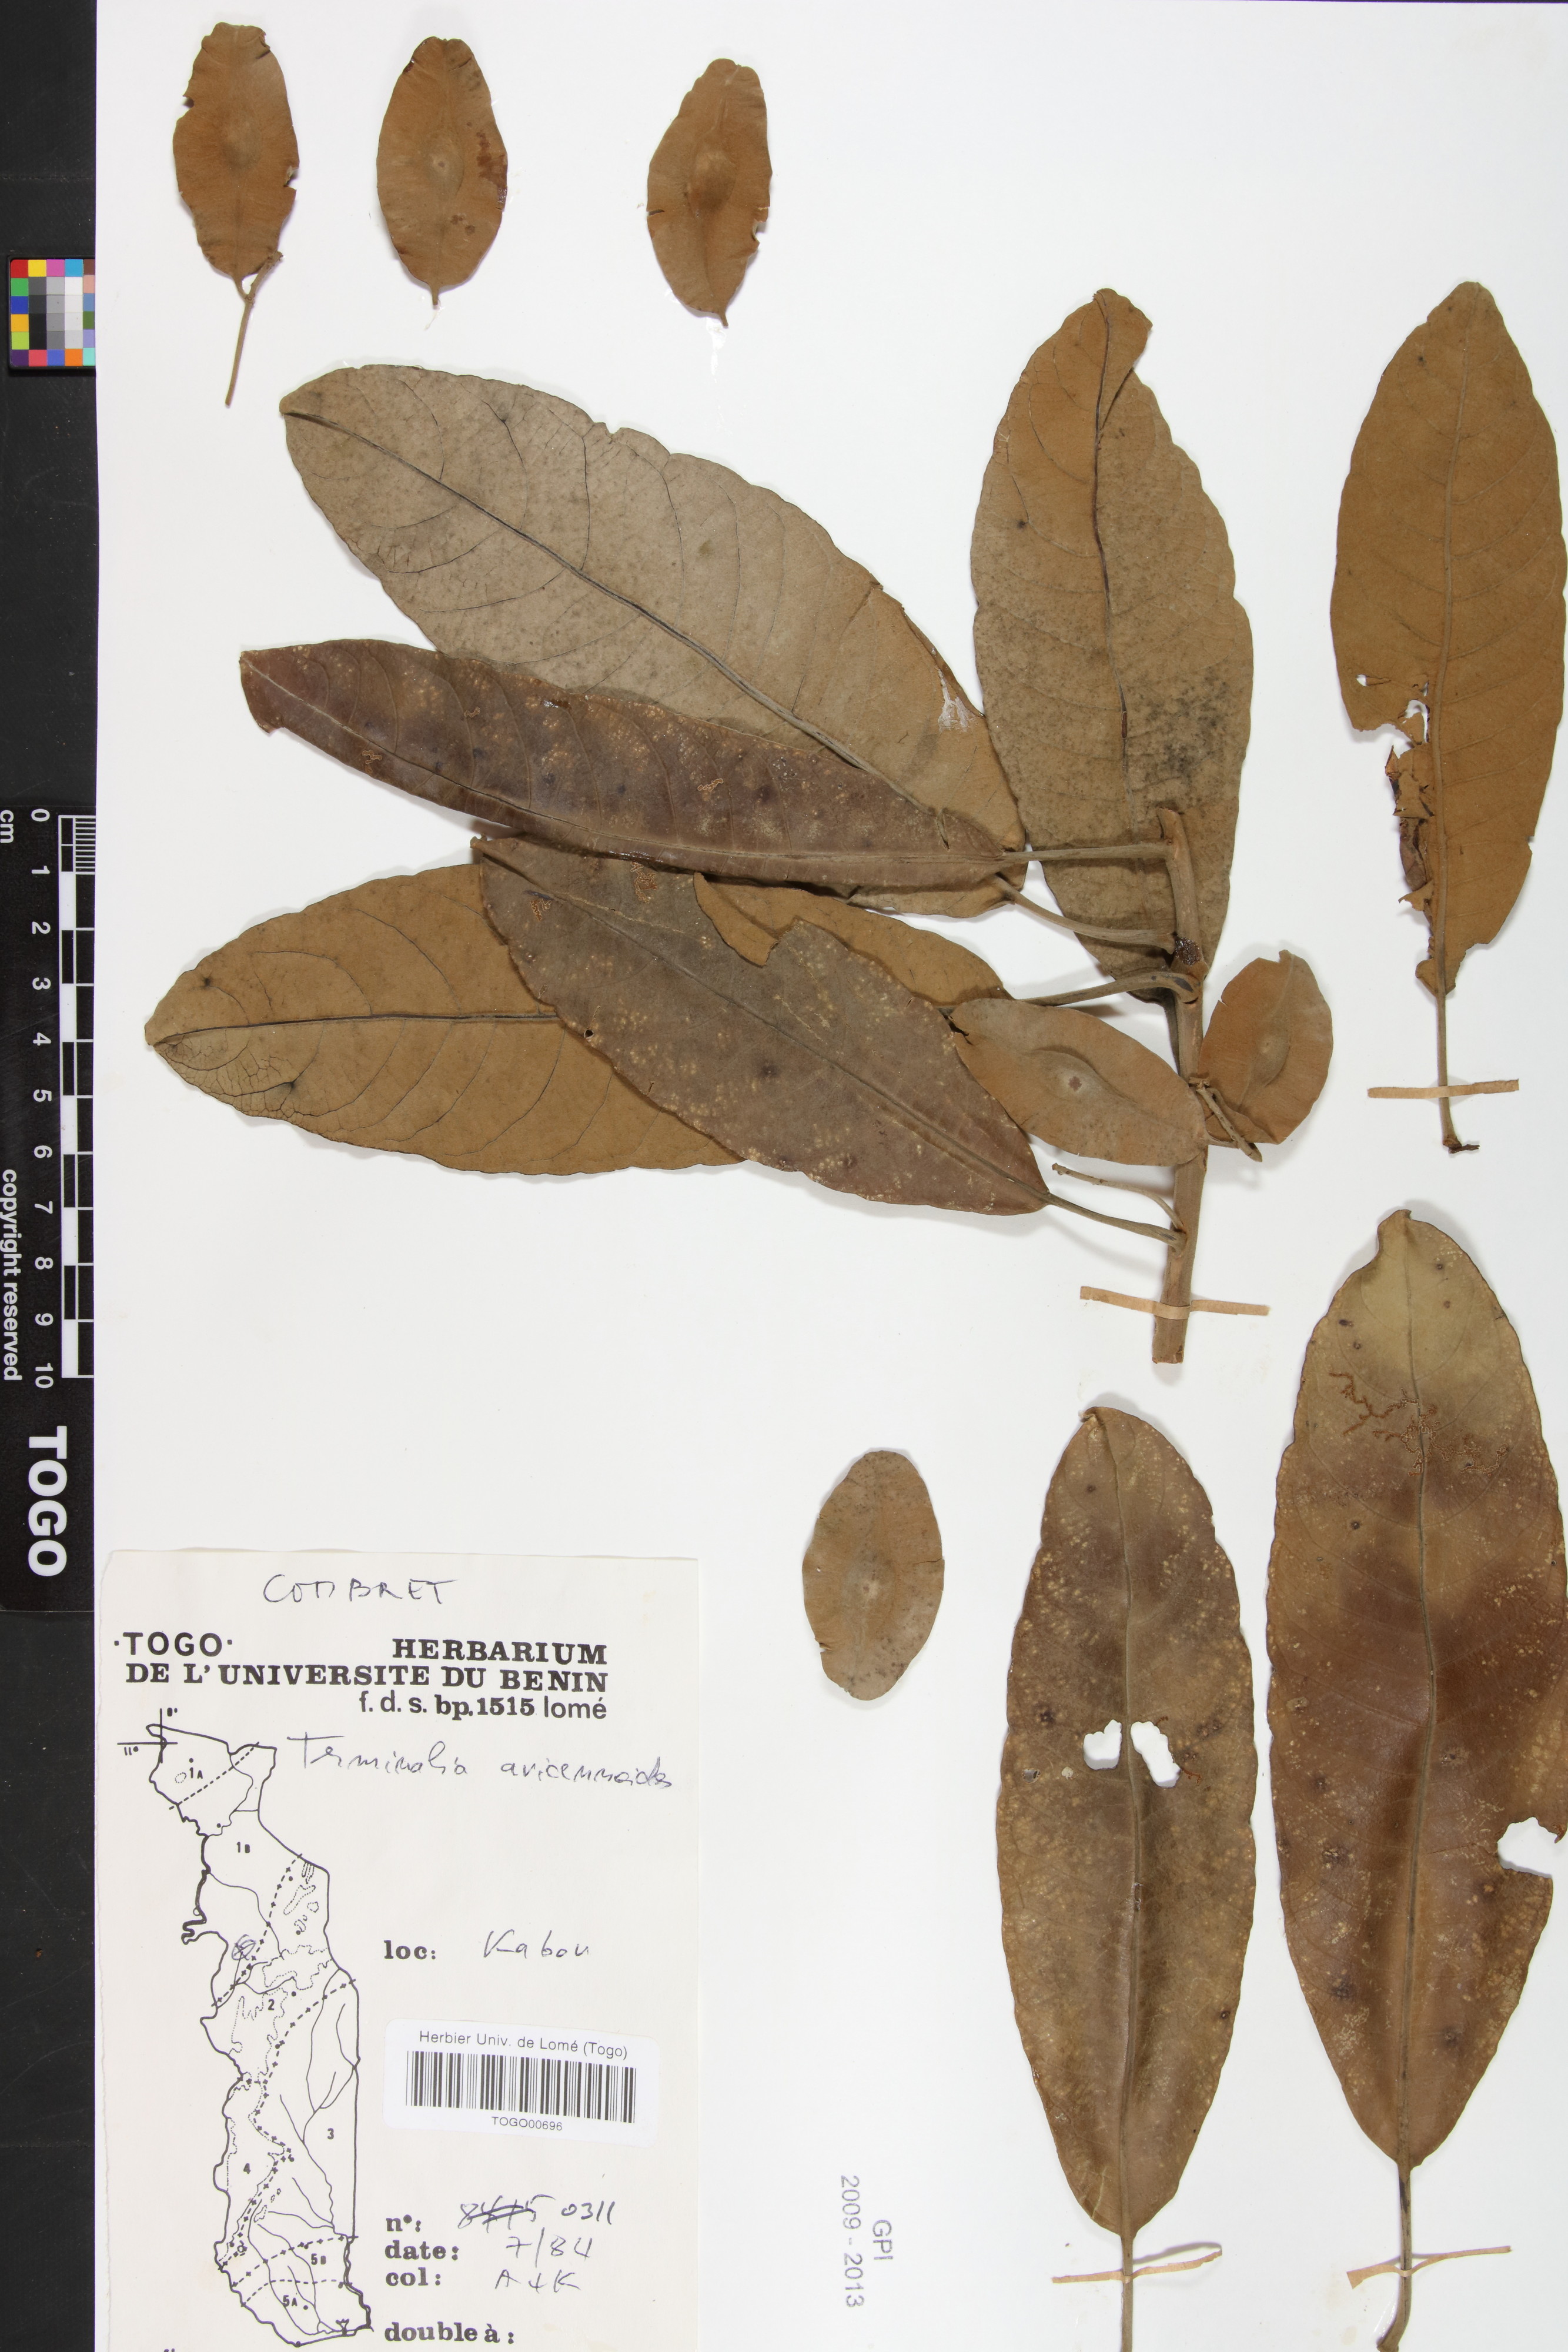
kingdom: Plantae
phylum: Tracheophyta
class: Magnoliopsida
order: Myrtales
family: Combretaceae
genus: Terminalia
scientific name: Terminalia avicennioides
